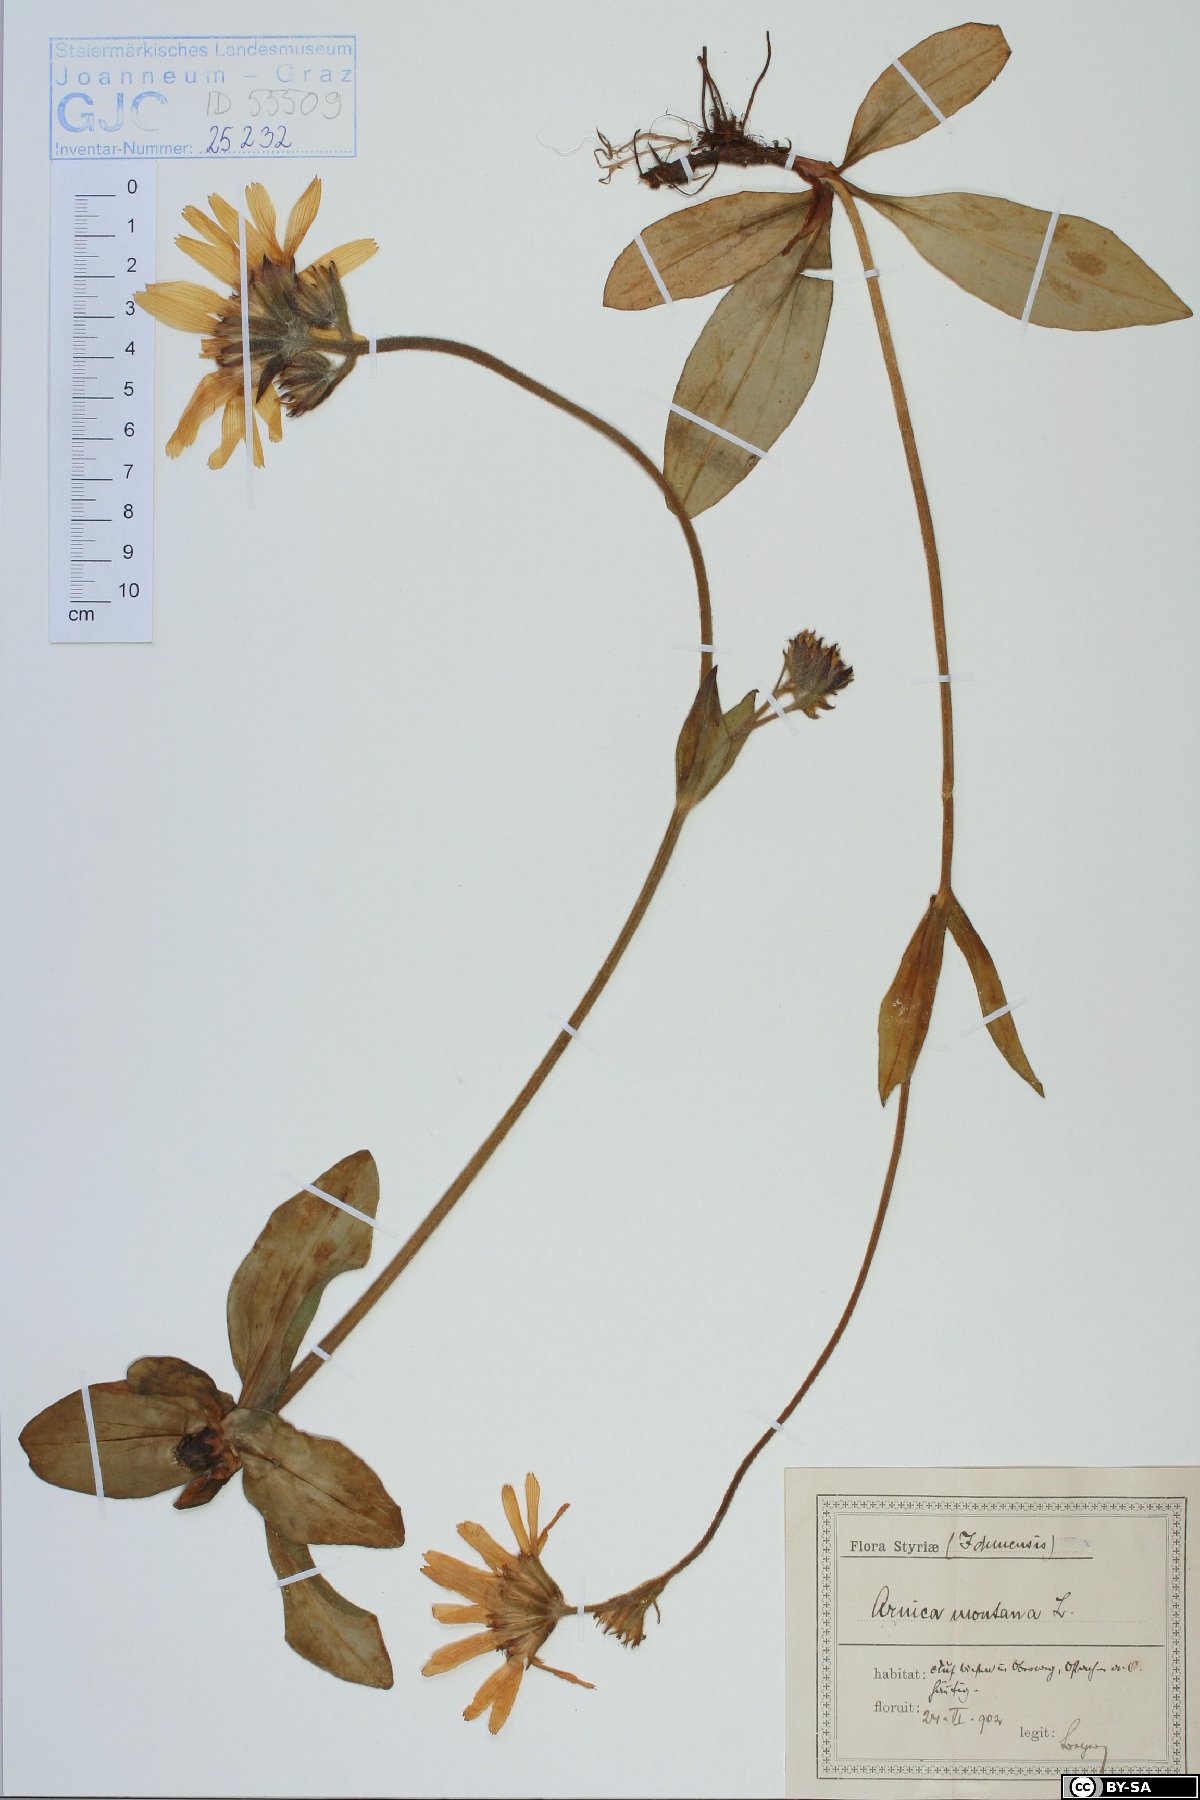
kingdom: Plantae
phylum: Tracheophyta
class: Magnoliopsida
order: Asterales
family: Asteraceae
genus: Arnica
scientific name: Arnica montana
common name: Leopard's bane
